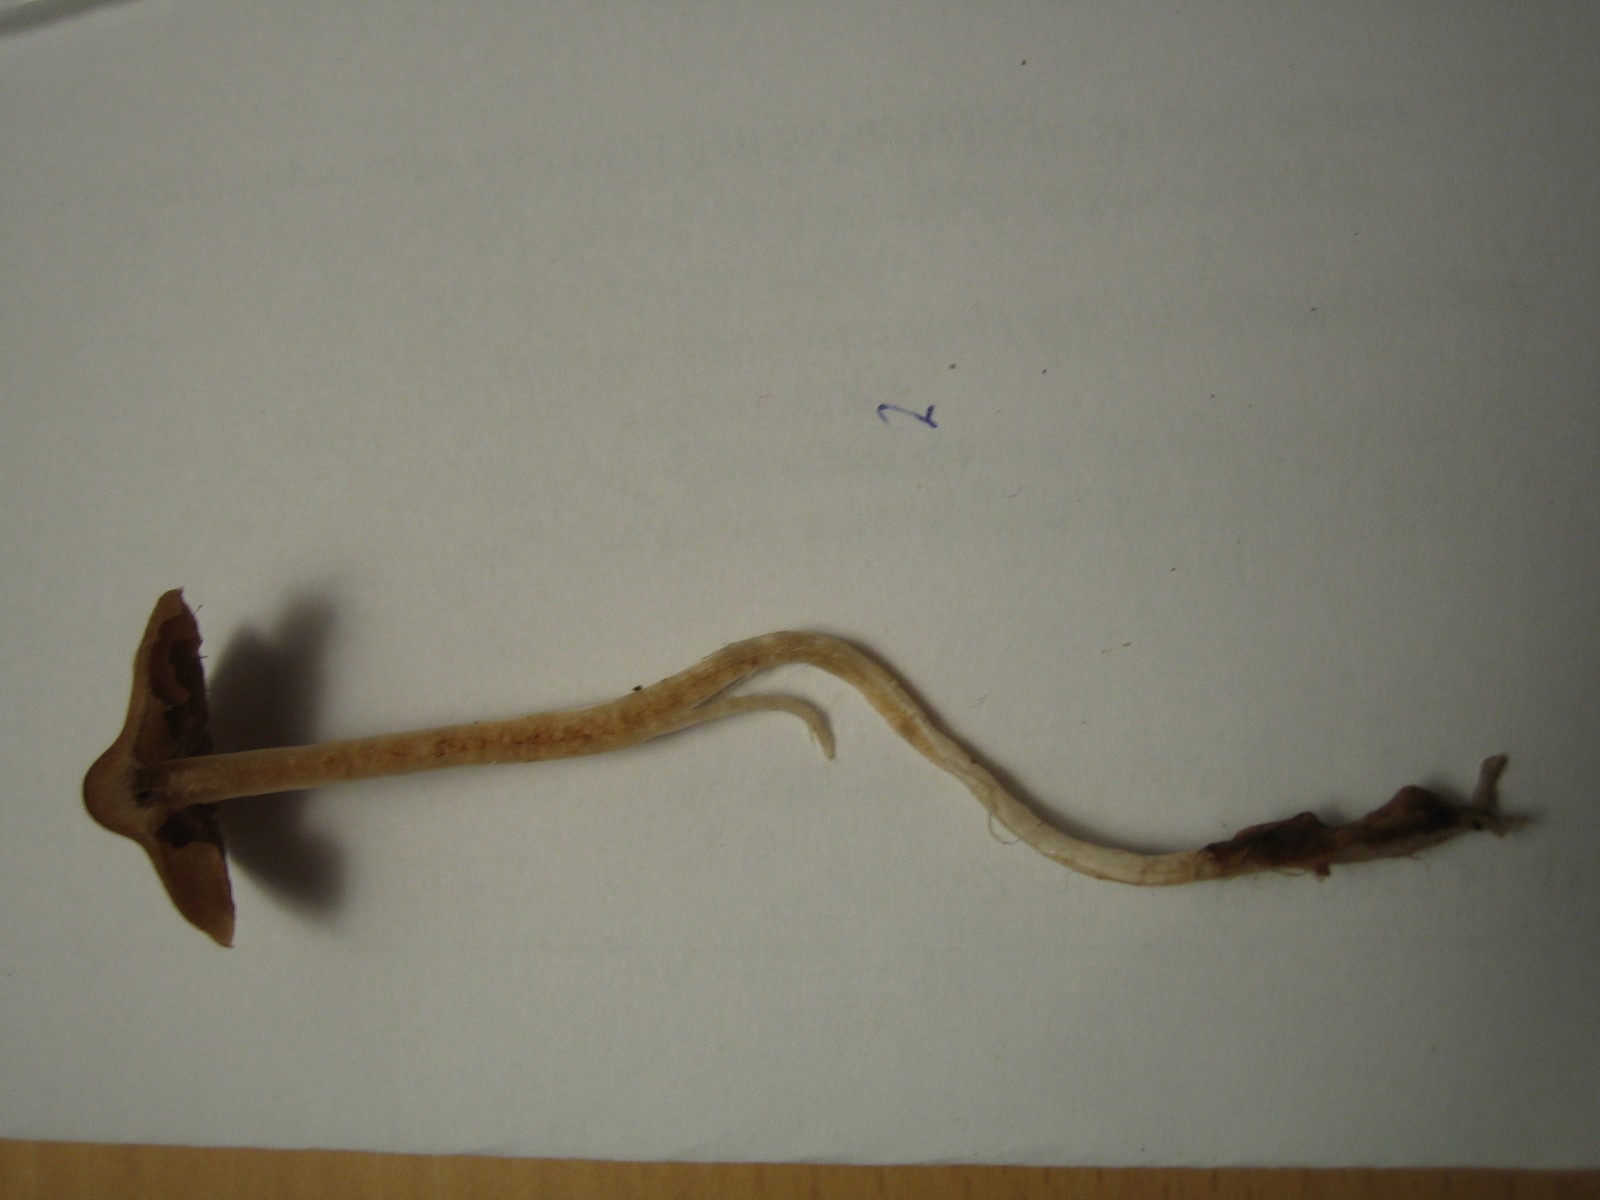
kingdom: Fungi
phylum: Basidiomycota
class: Agaricomycetes
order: Agaricales
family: Cortinariaceae
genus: Cortinarius
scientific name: Cortinarius
